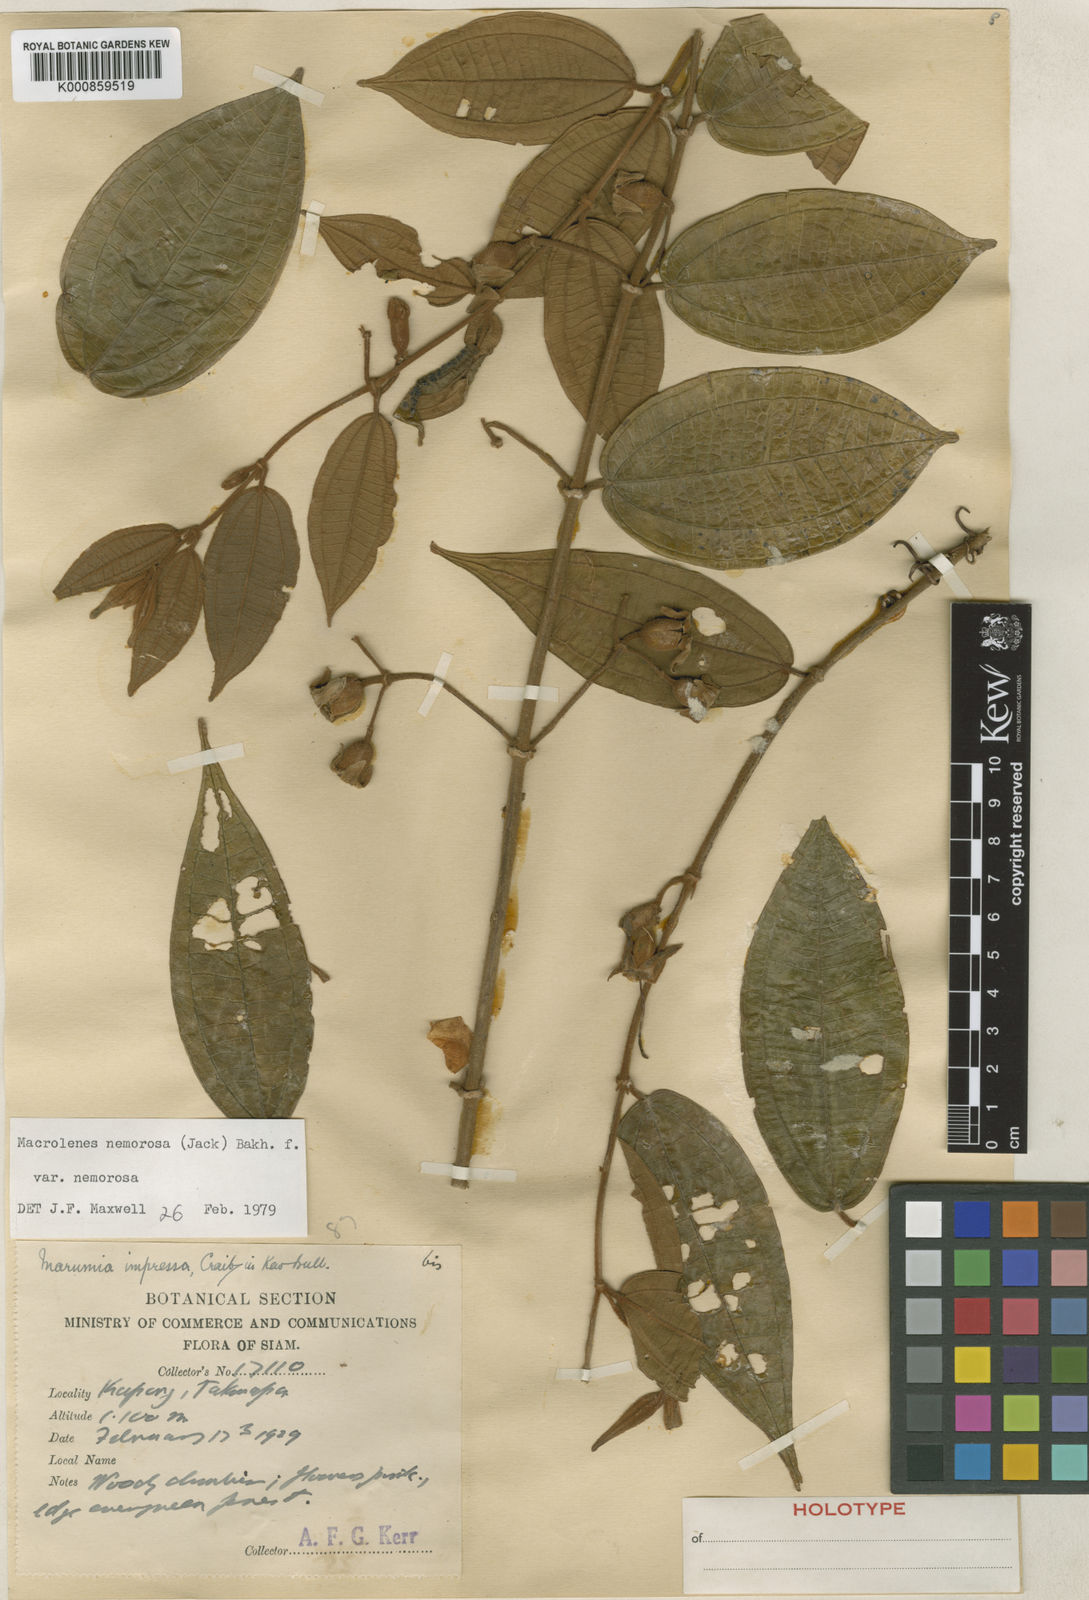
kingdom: Plantae
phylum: Tracheophyta
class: Magnoliopsida
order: Myrtales
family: Melastomataceae
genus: Macrolenes
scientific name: Macrolenes nemorosa
